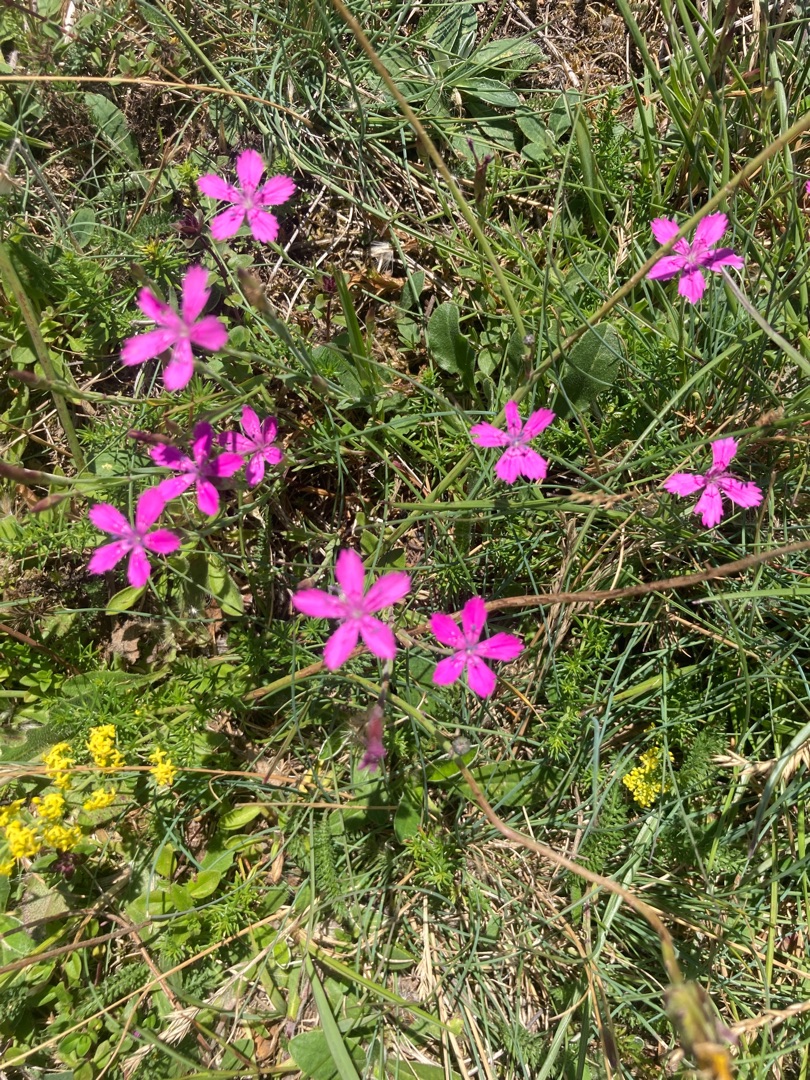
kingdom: Plantae
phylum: Tracheophyta
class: Magnoliopsida
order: Caryophyllales
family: Caryophyllaceae
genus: Dianthus
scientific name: Dianthus deltoides
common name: Bakke-nellike
